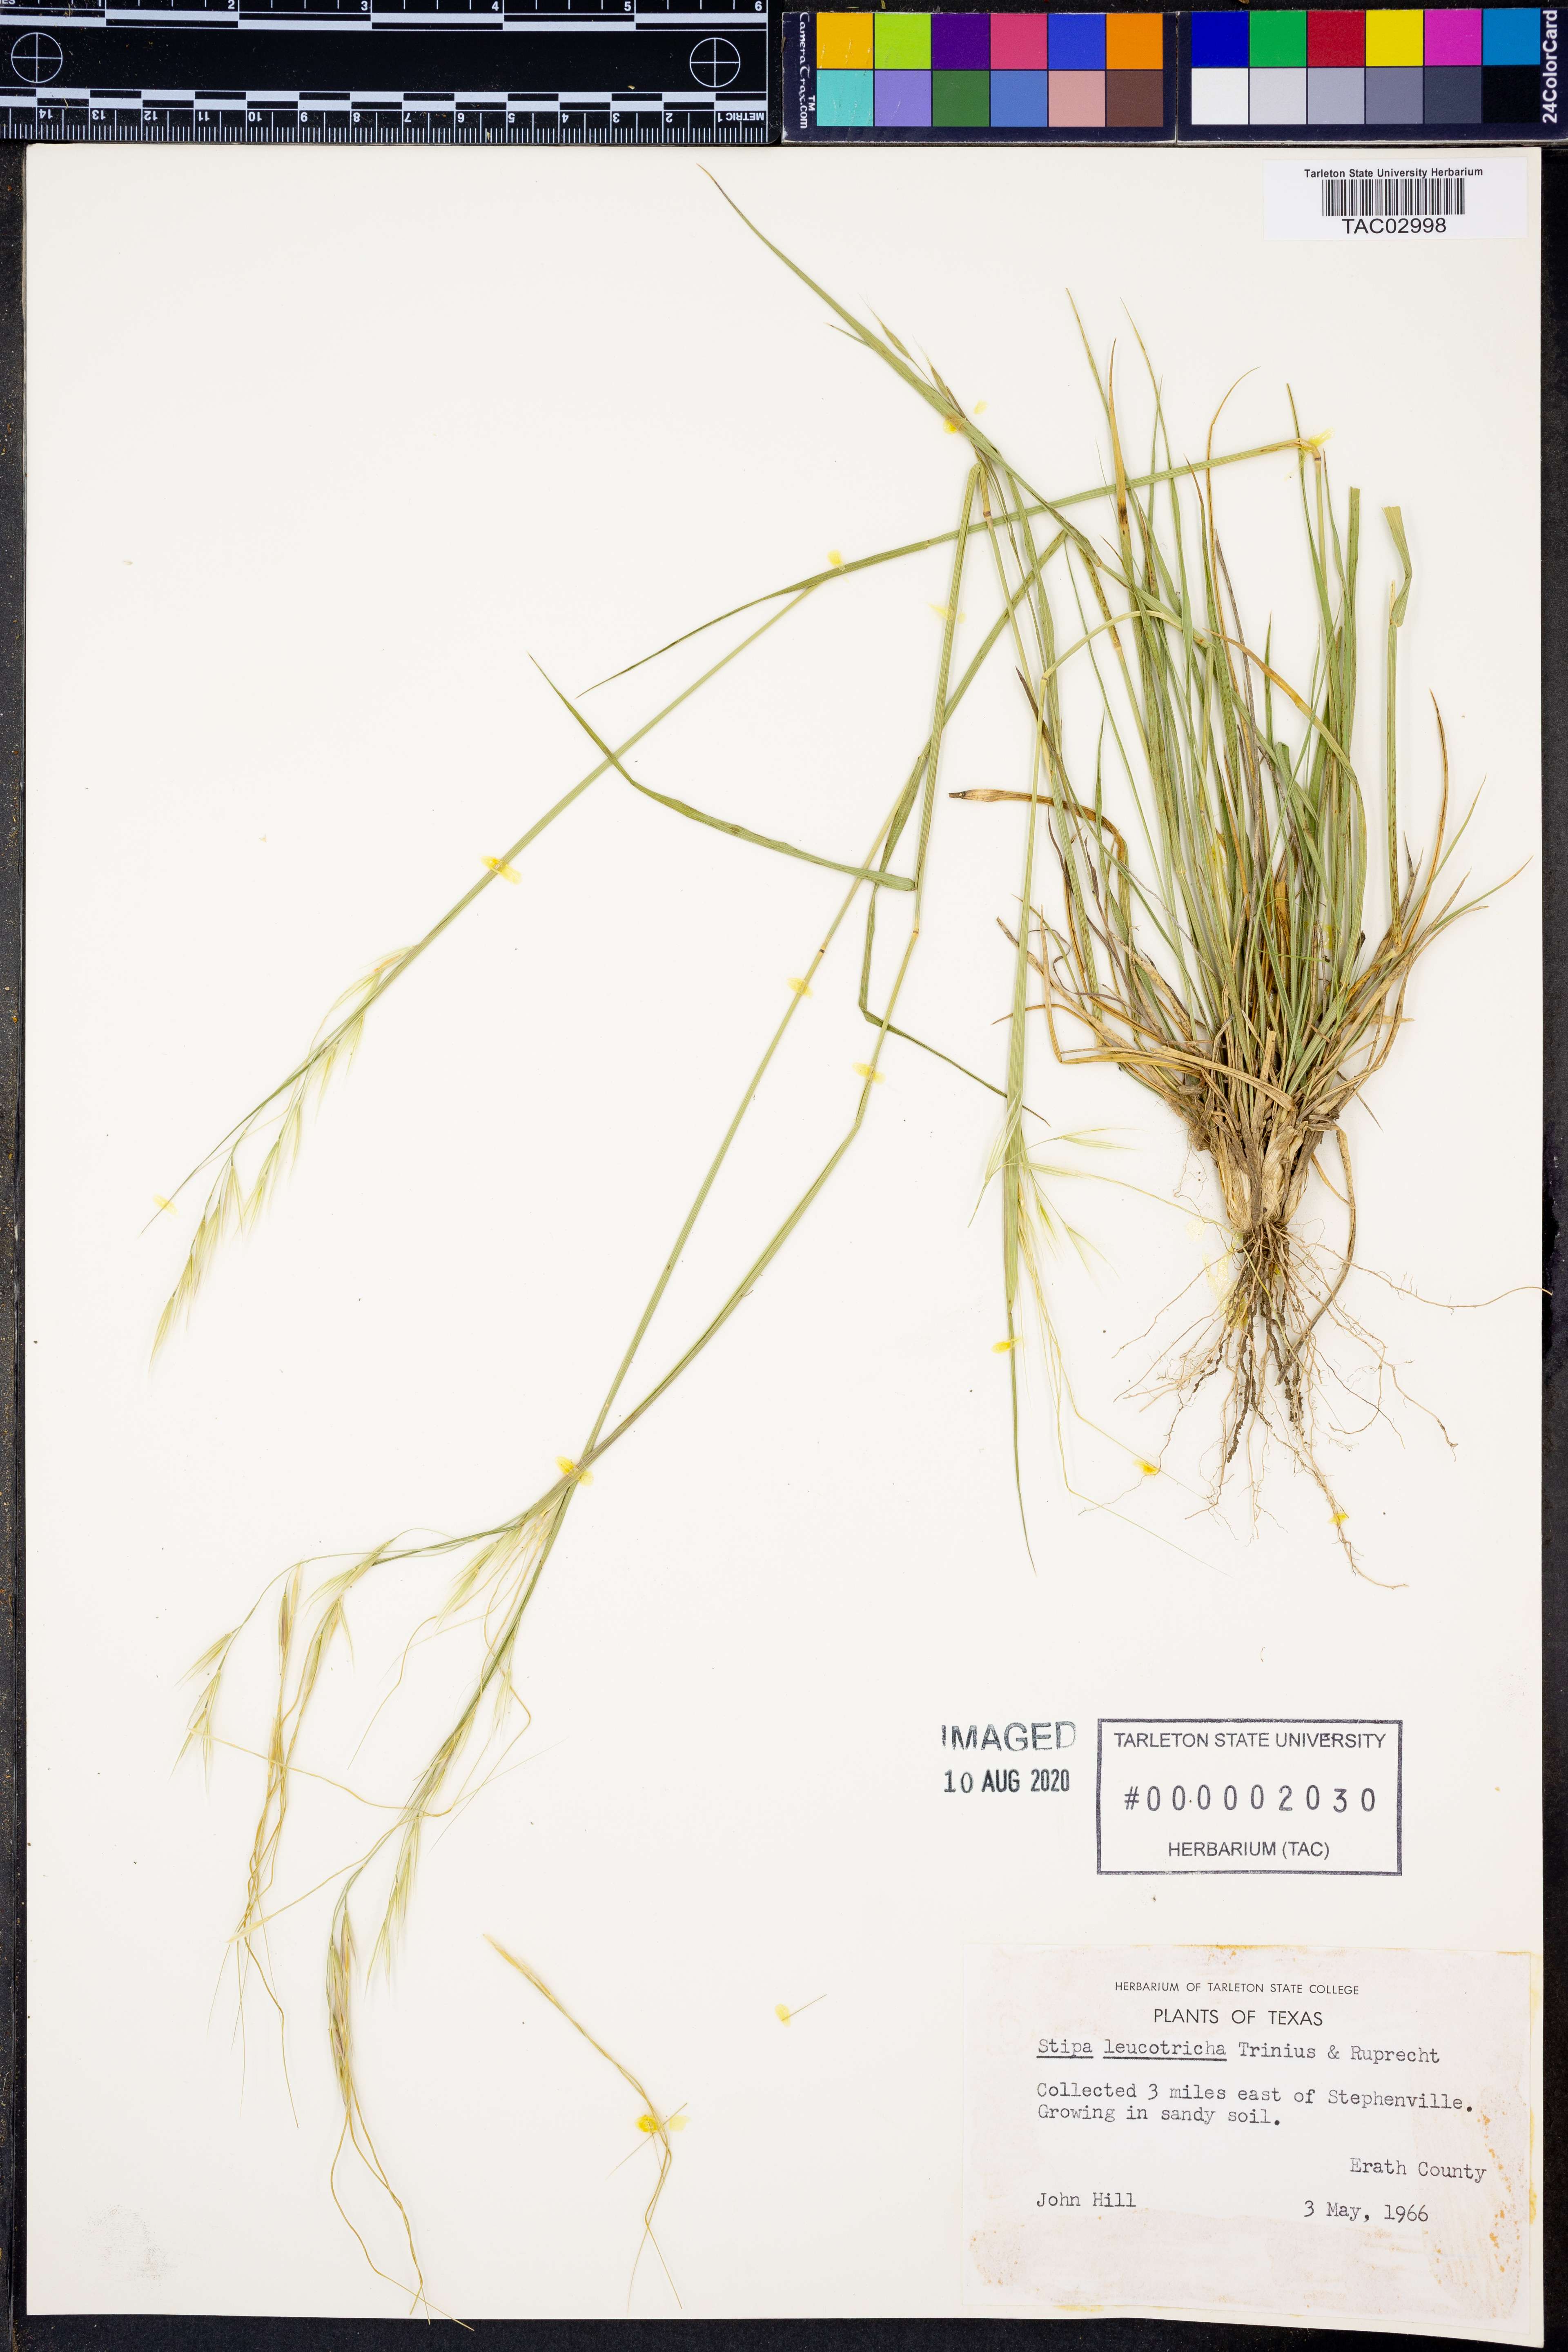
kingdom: Plantae
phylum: Tracheophyta
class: Liliopsida
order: Poales
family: Poaceae
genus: Nassella
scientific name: Nassella leucotricha
